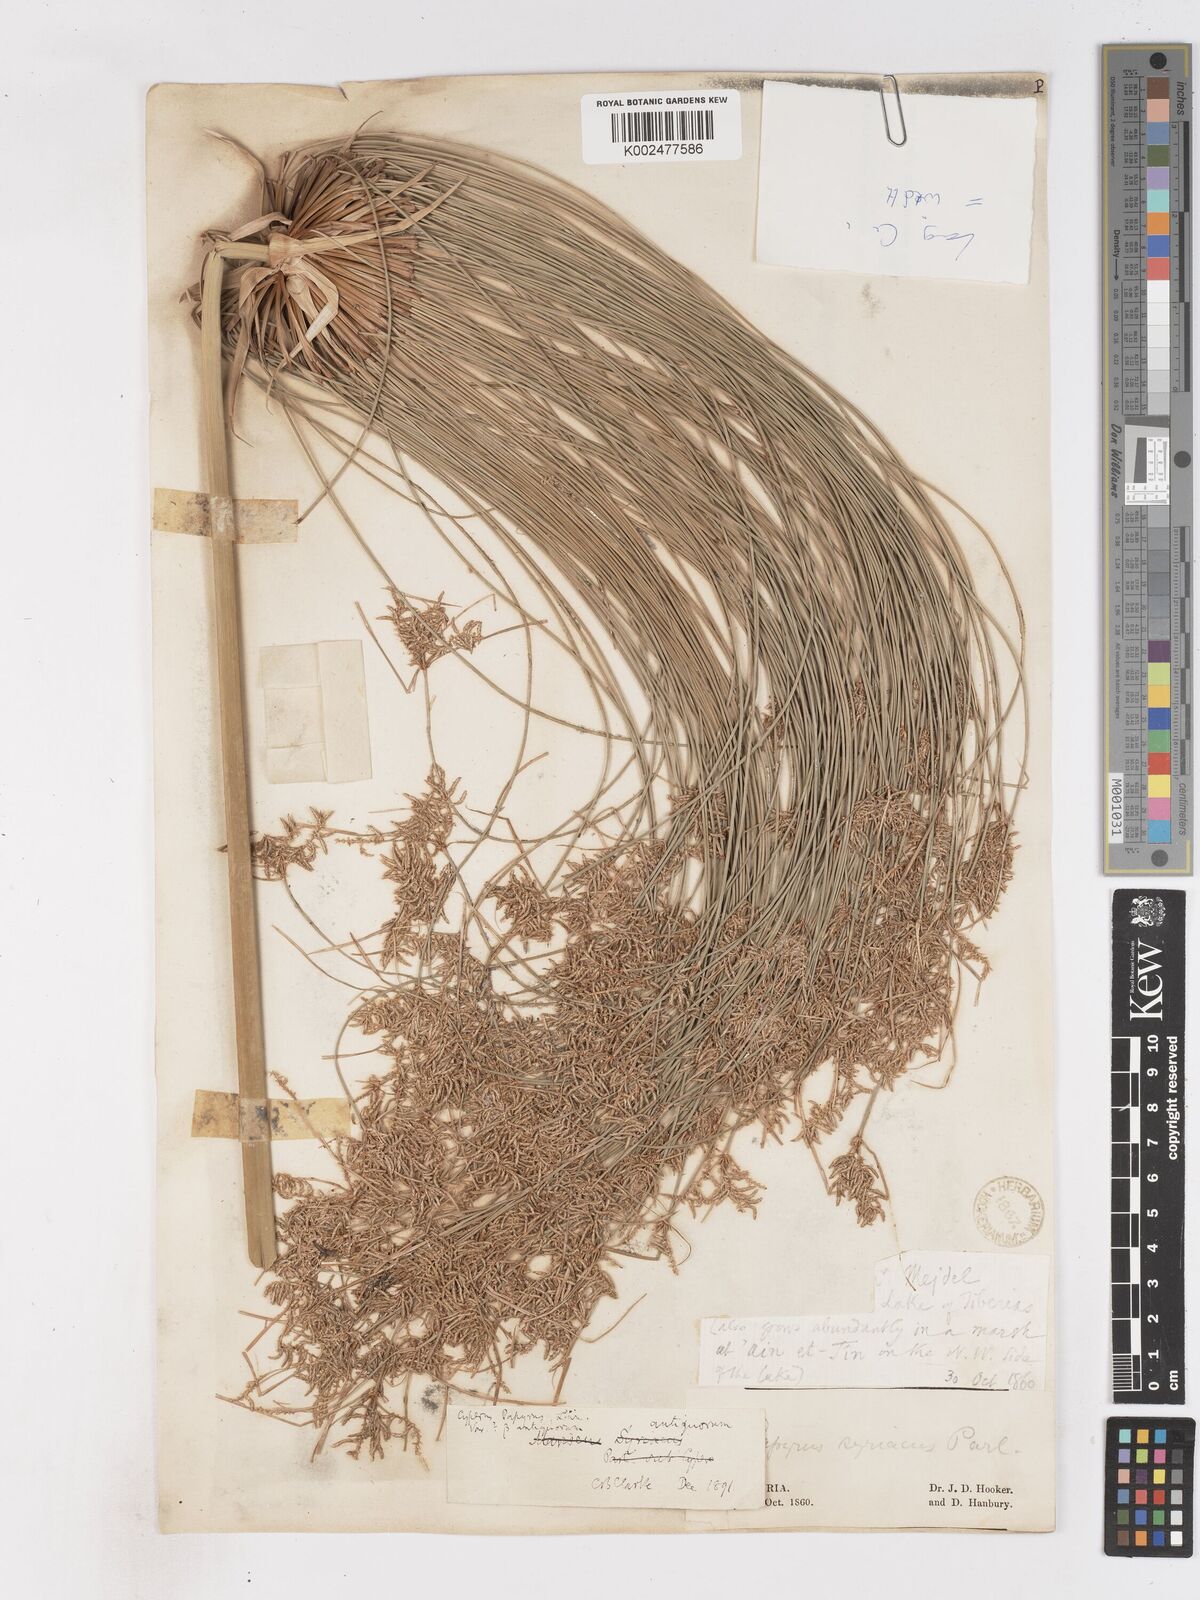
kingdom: Plantae
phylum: Tracheophyta
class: Liliopsida
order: Poales
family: Cyperaceae
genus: Cyperus
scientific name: Cyperus papyrus
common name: Papyrus
